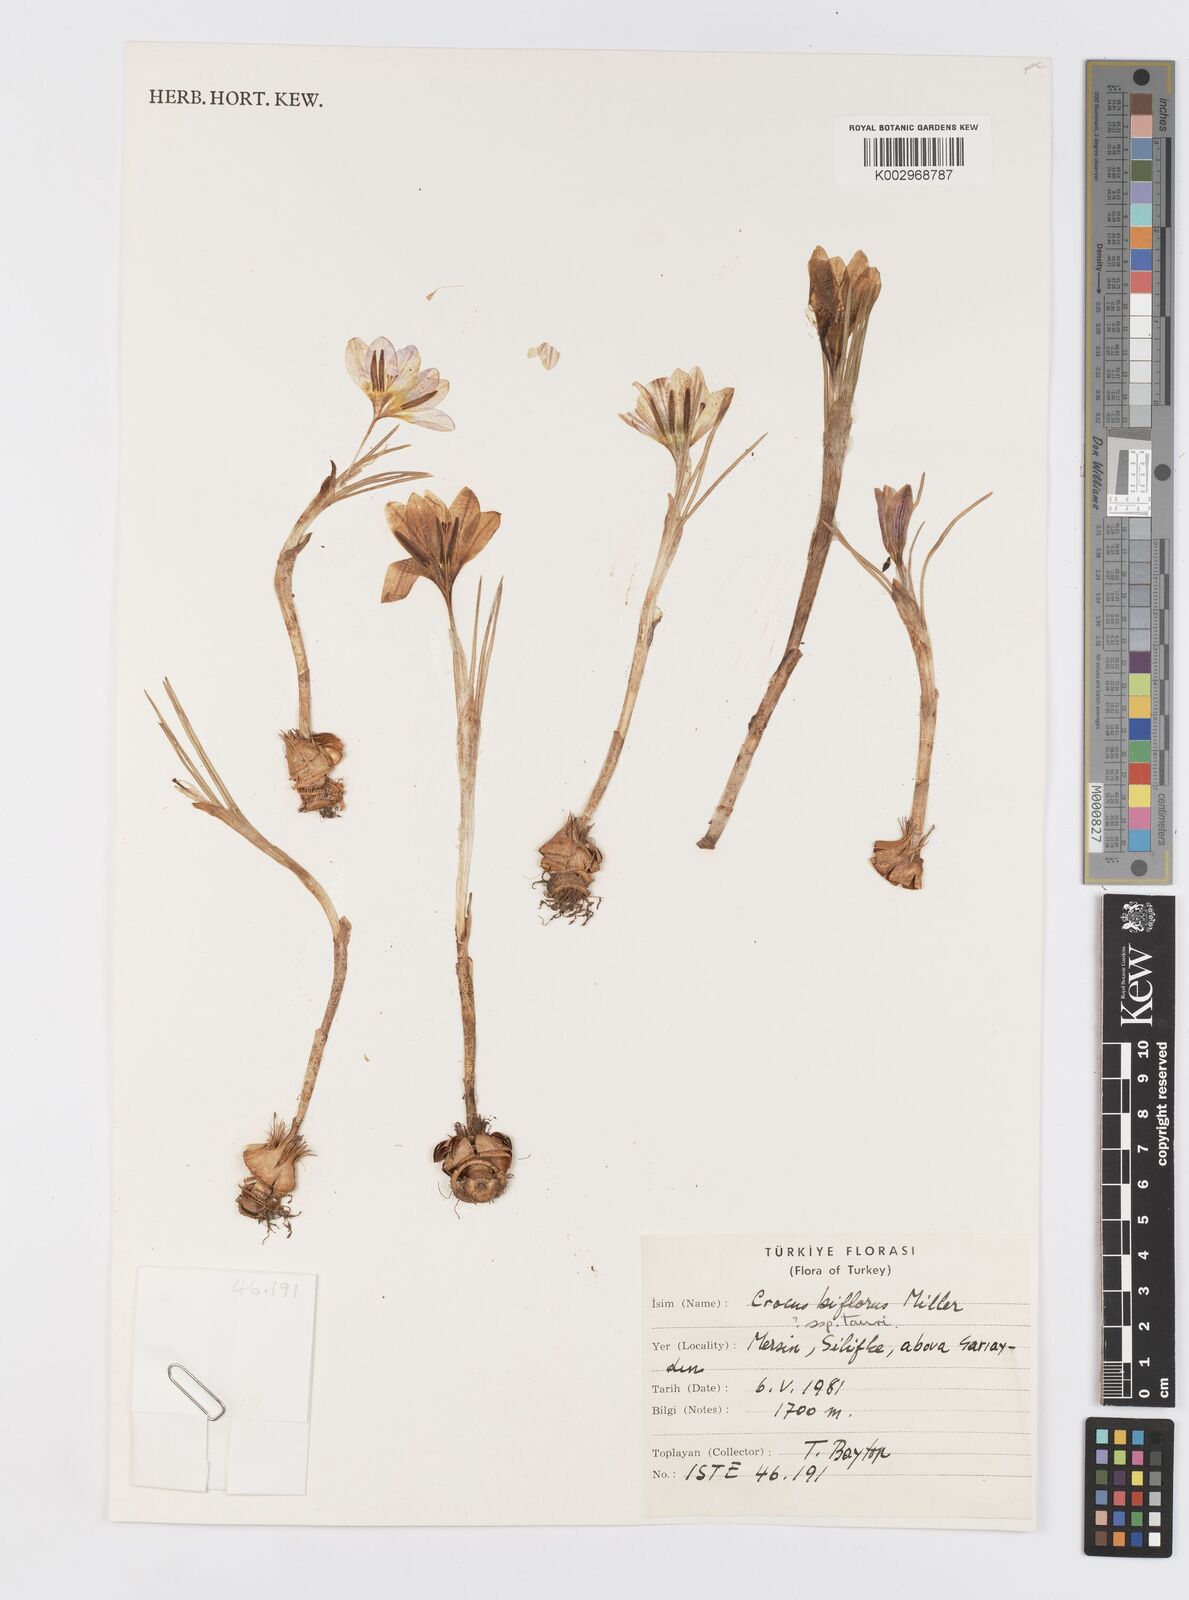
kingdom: Plantae
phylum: Tracheophyta
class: Liliopsida
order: Asparagales
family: Iridaceae
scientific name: Iridaceae
